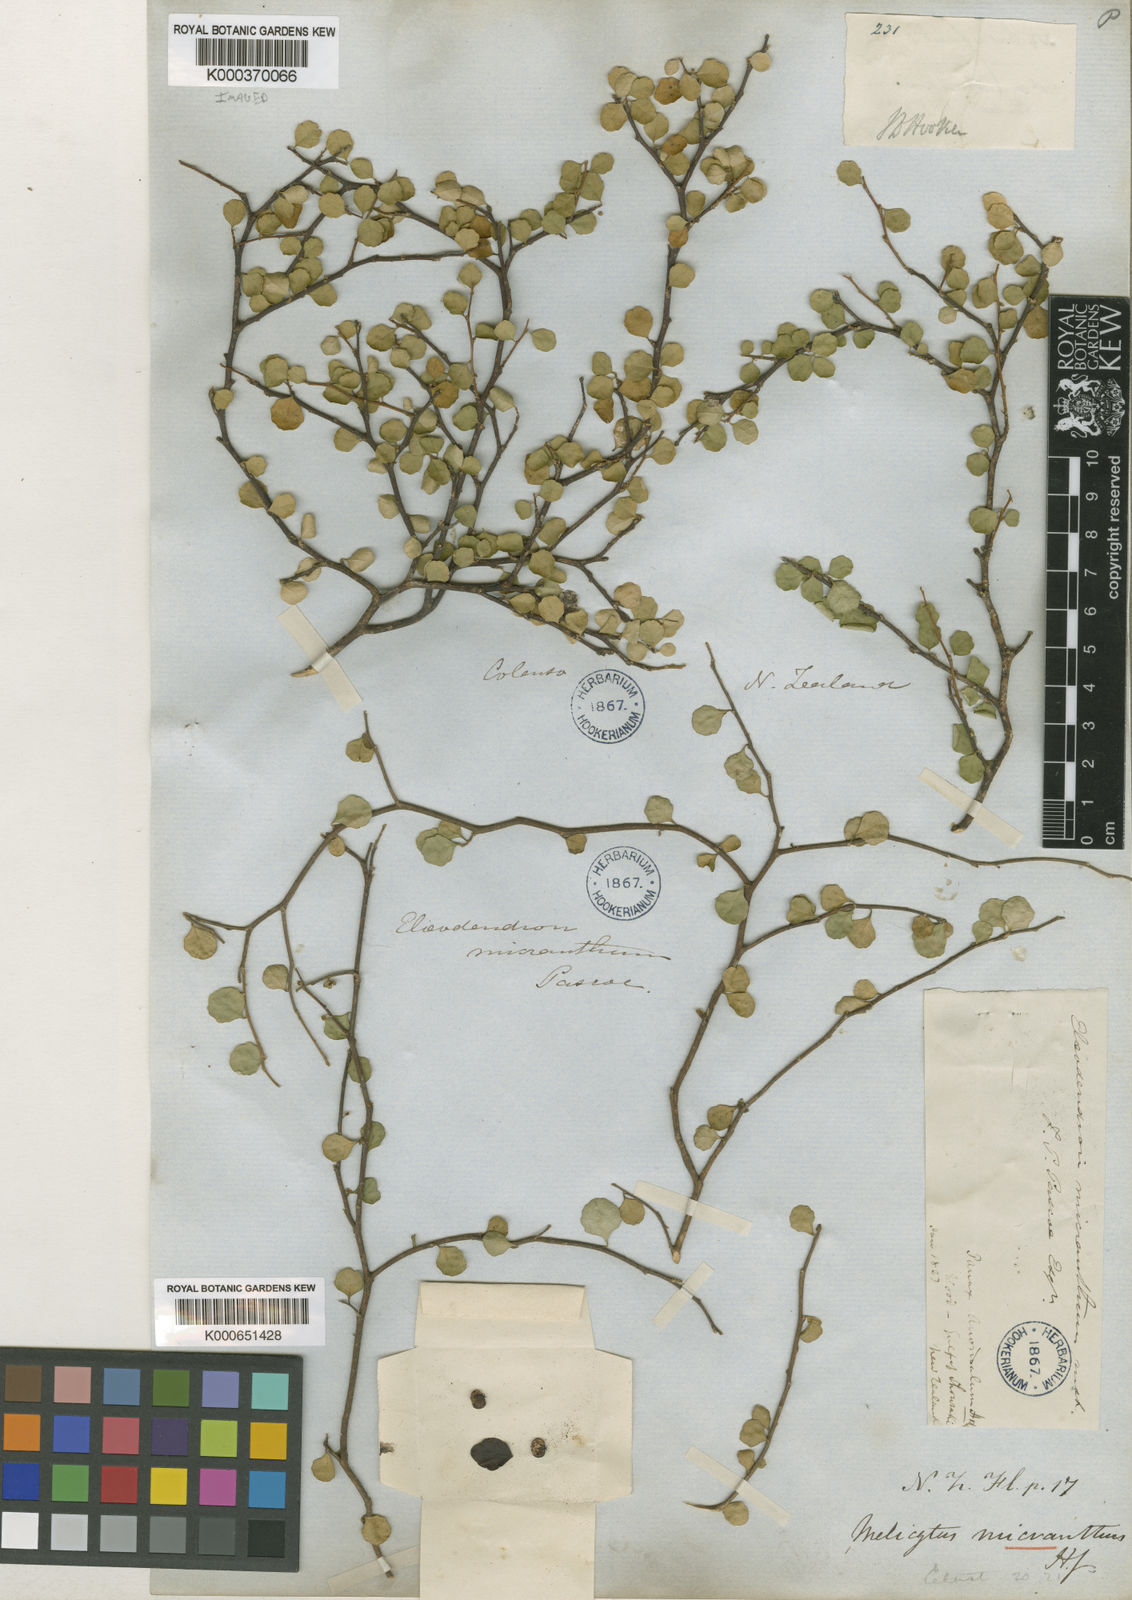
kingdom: Plantae
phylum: Tracheophyta
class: Magnoliopsida
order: Malpighiales
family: Violaceae
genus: Melicytus
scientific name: Melicytus micranthus
